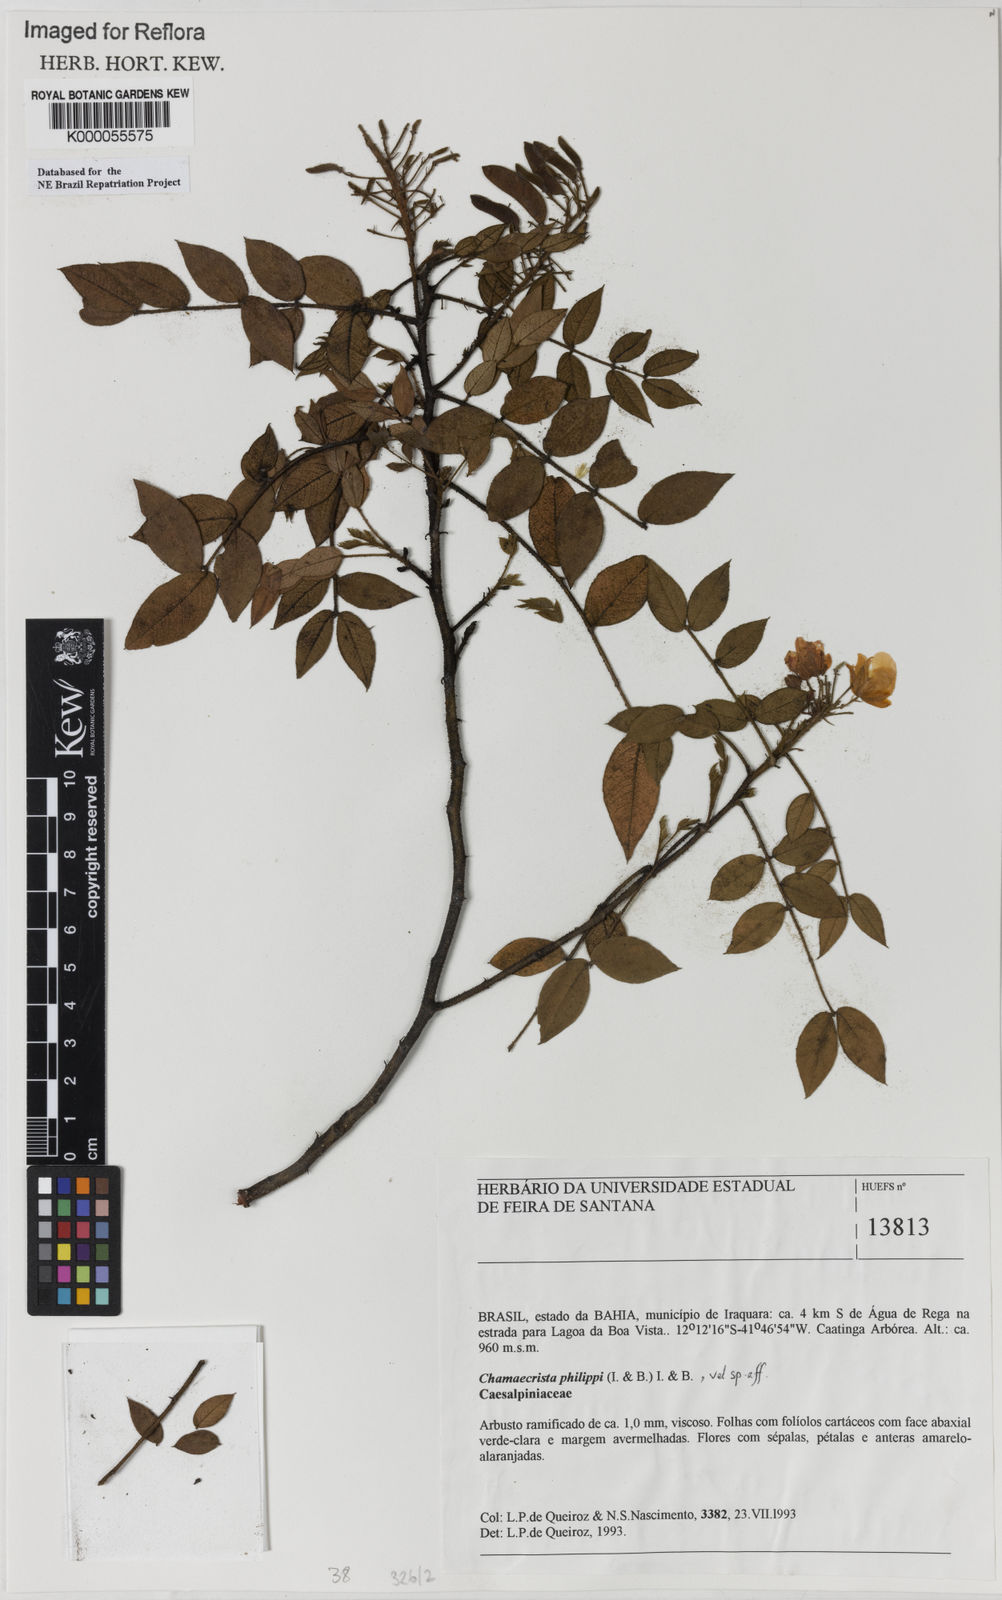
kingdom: Plantae
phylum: Tracheophyta
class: Magnoliopsida
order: Fabales
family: Fabaceae
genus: Chamaecrista
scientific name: Chamaecrista philippii
